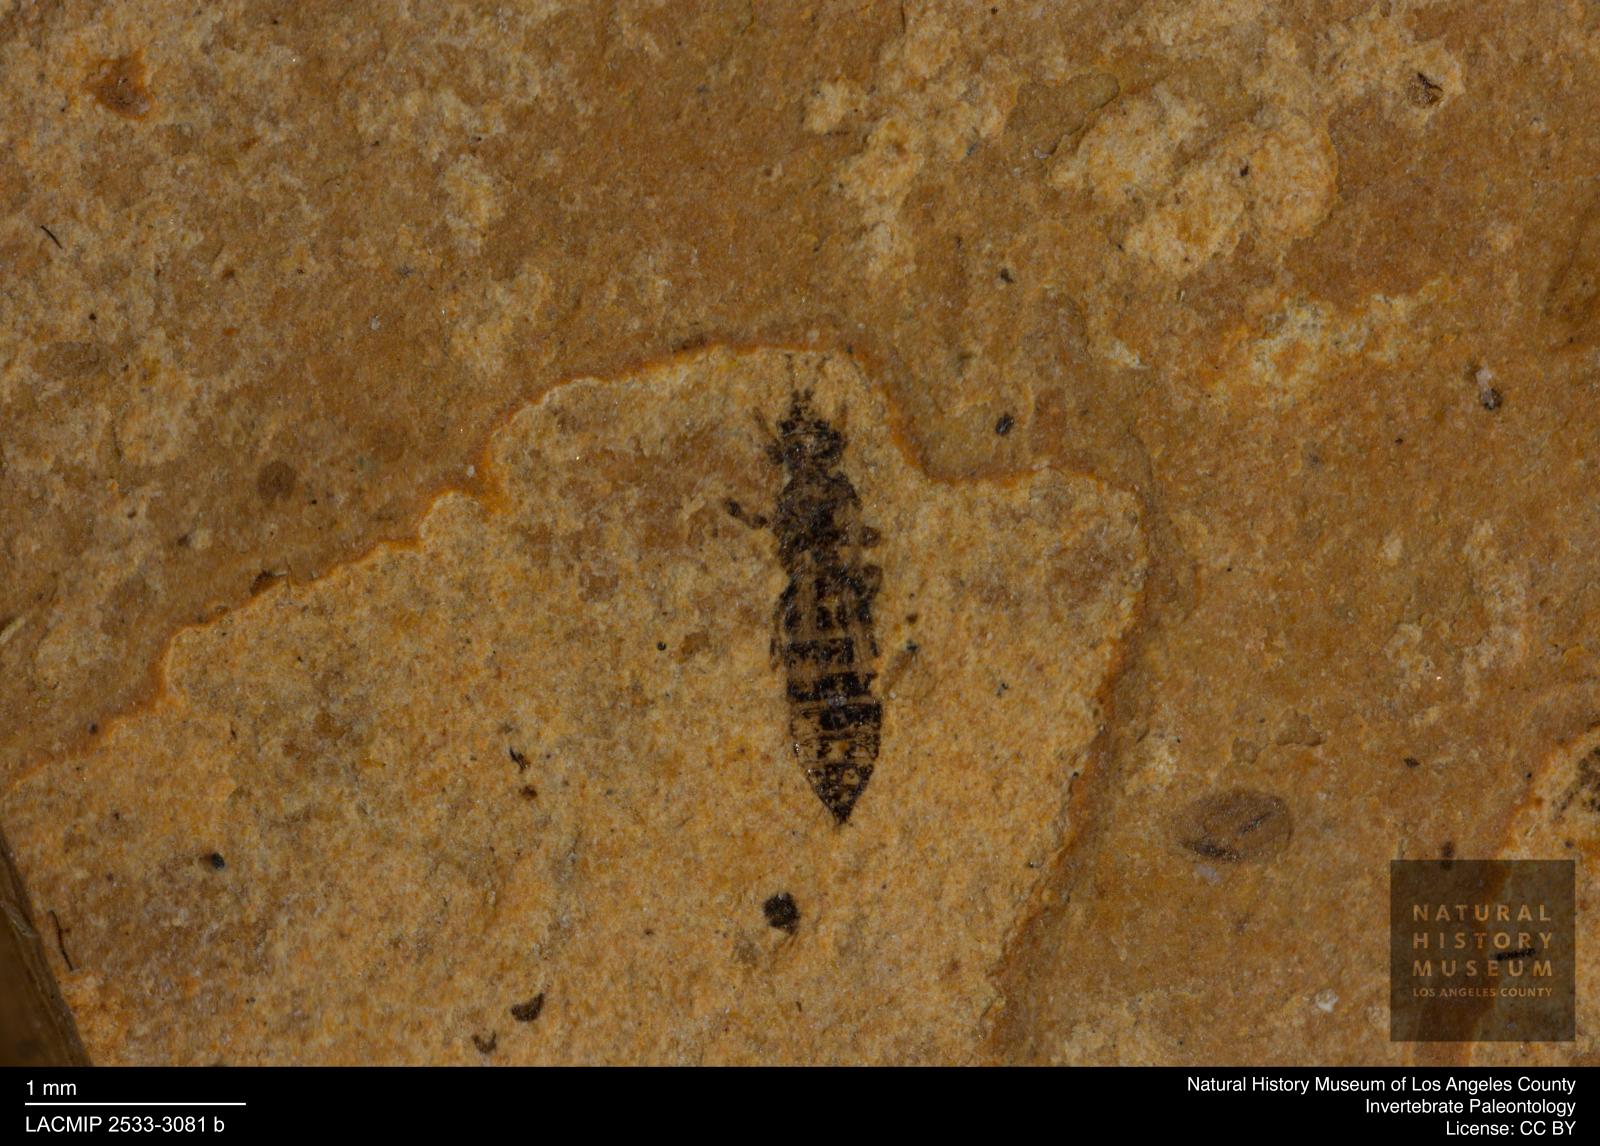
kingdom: Animalia
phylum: Arthropoda
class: Insecta
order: Thysanoptera
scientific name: Thysanoptera
